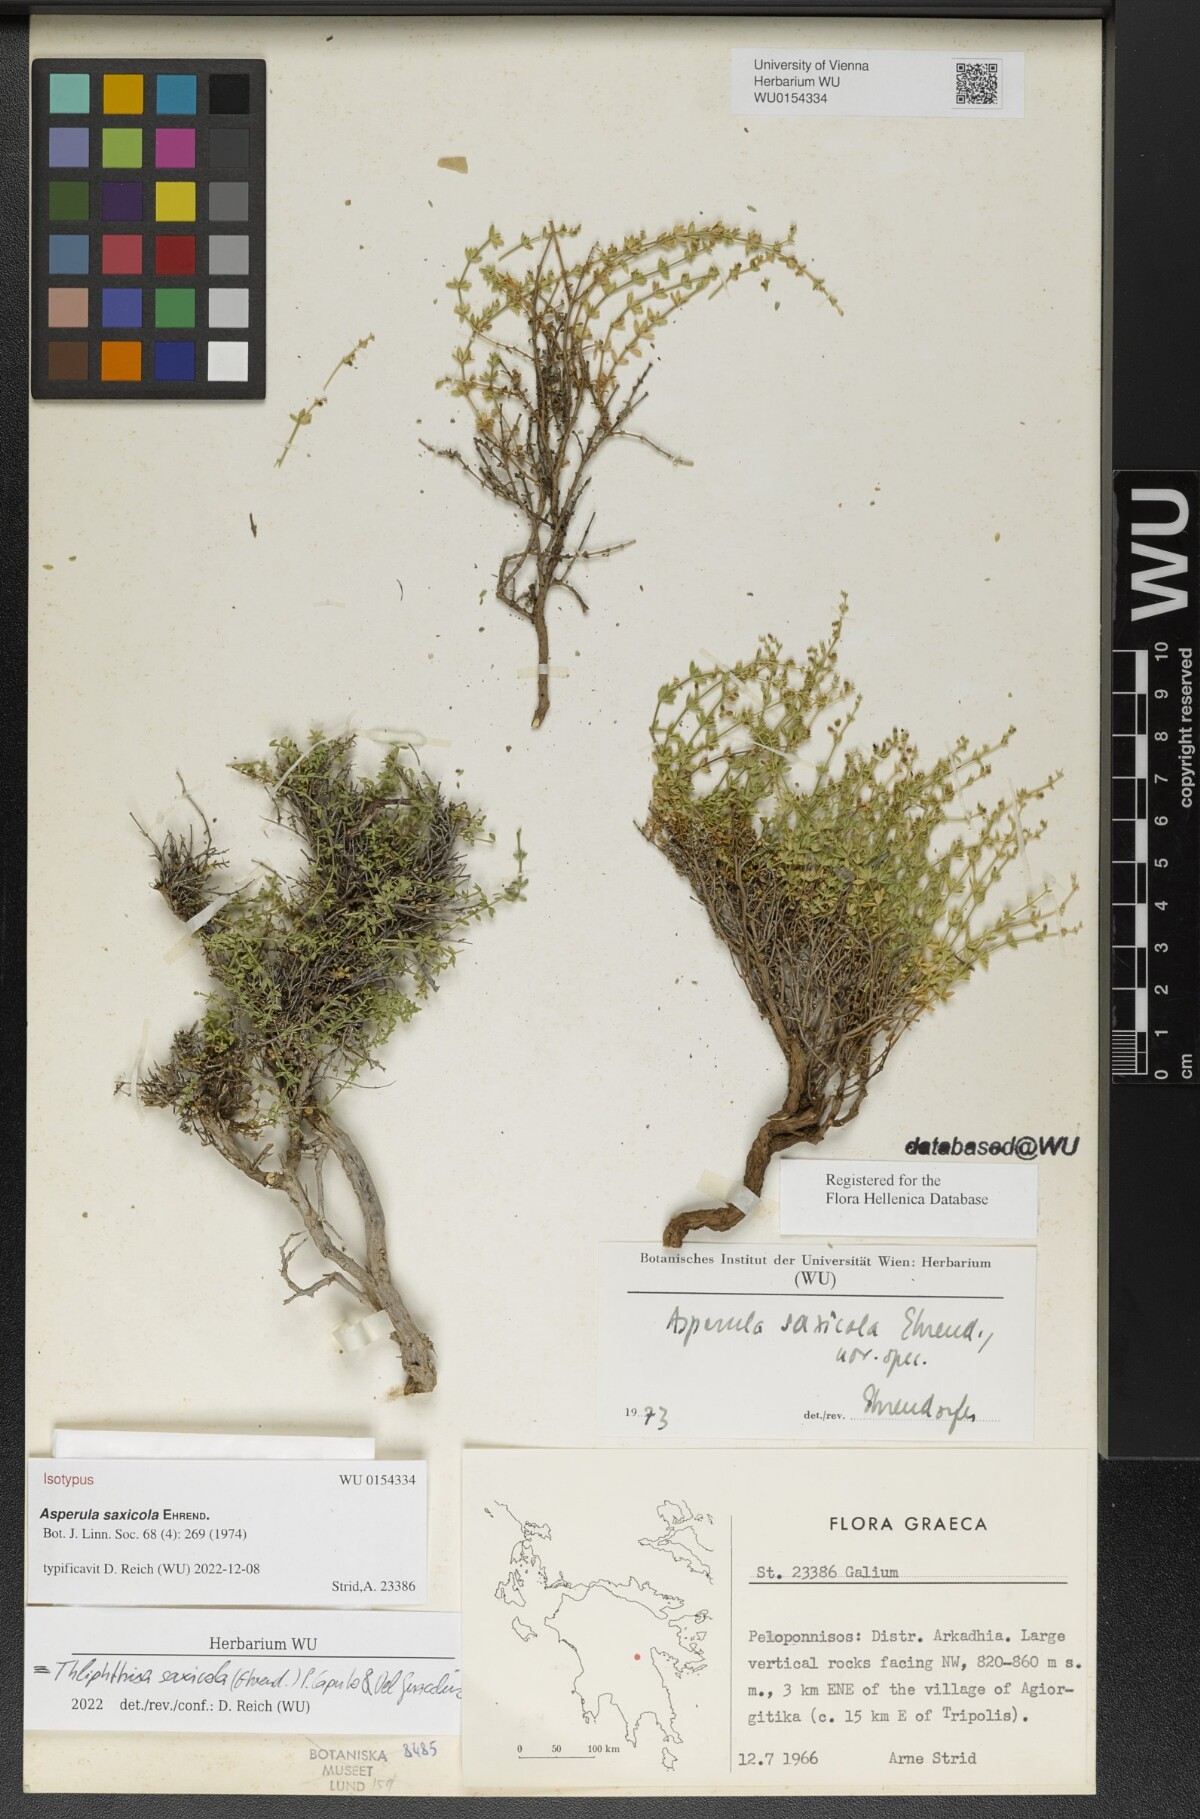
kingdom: Plantae
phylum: Tracheophyta
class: Magnoliopsida
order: Gentianales
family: Rubiaceae
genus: Thliphthisa
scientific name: Thliphthisa saxicola
